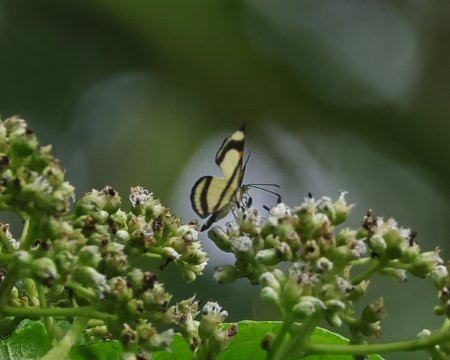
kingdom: Animalia
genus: Baeotis
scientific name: Baeotis nesaea
